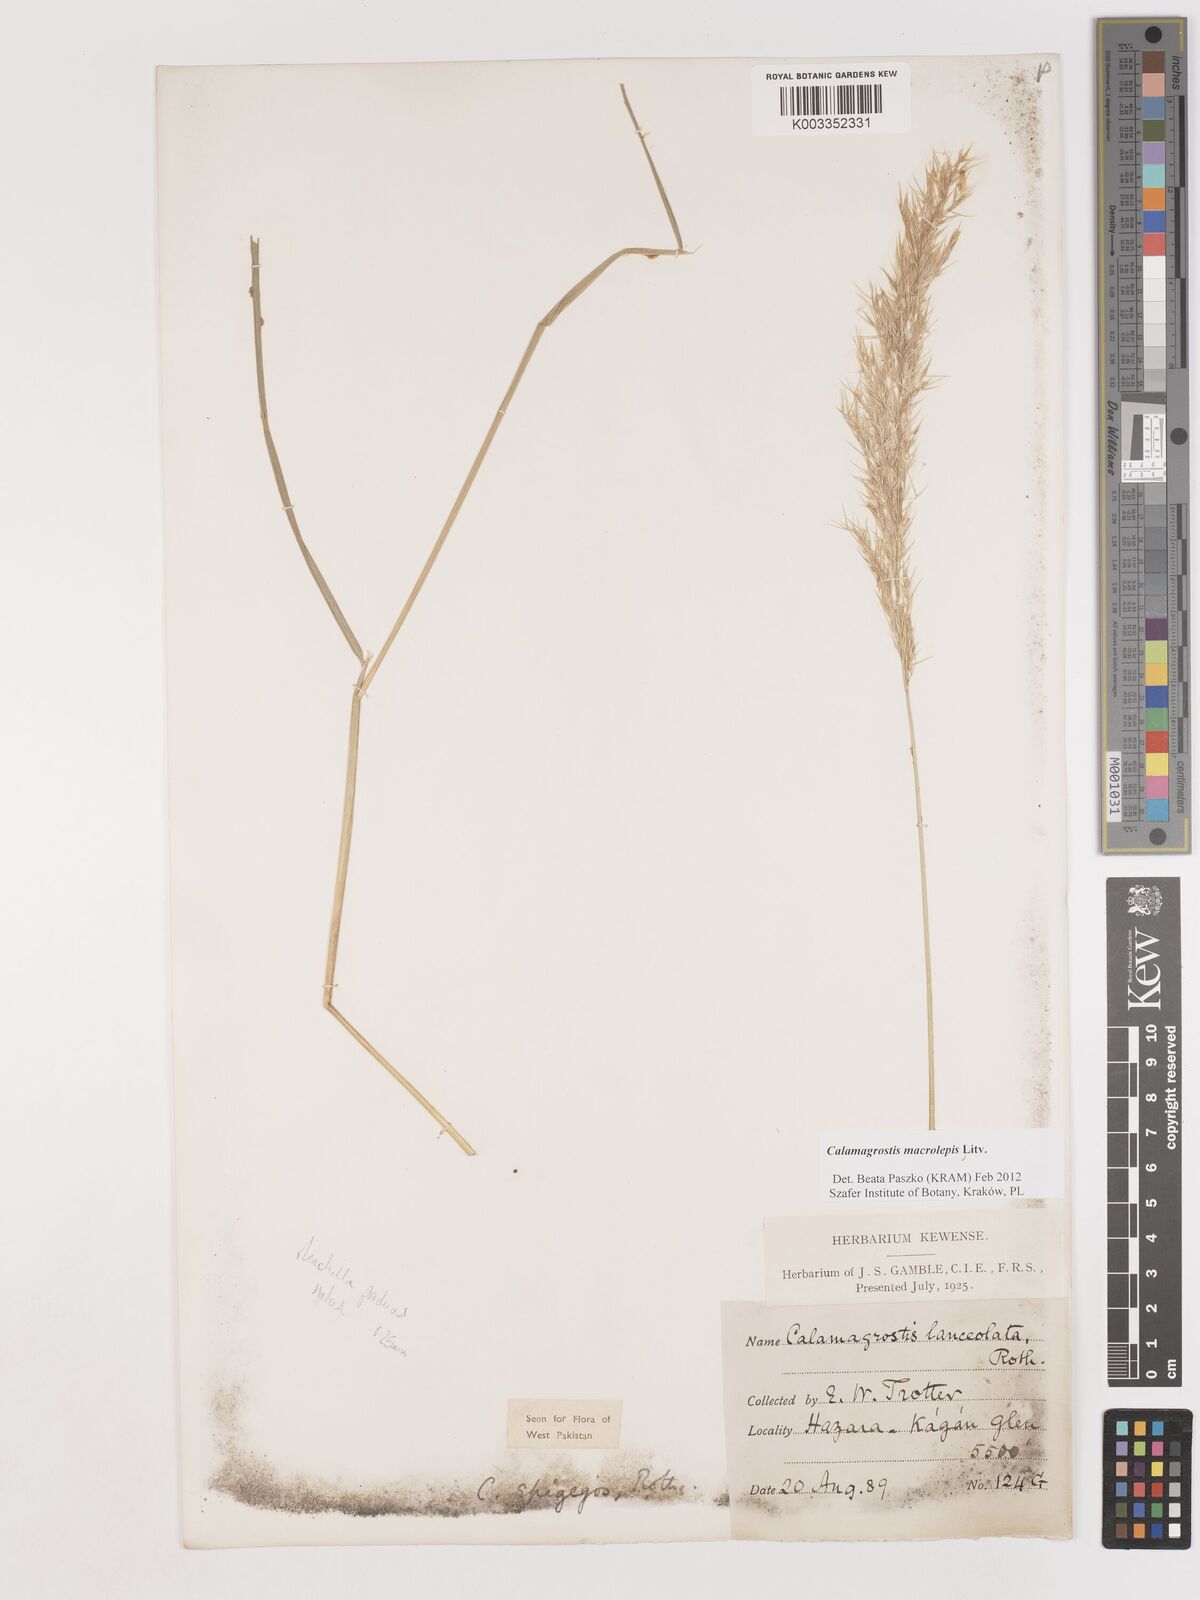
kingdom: Plantae
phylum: Tracheophyta
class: Liliopsida
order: Poales
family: Poaceae
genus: Calamagrostis
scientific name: Calamagrostis epigejos
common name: Wood small-reed
